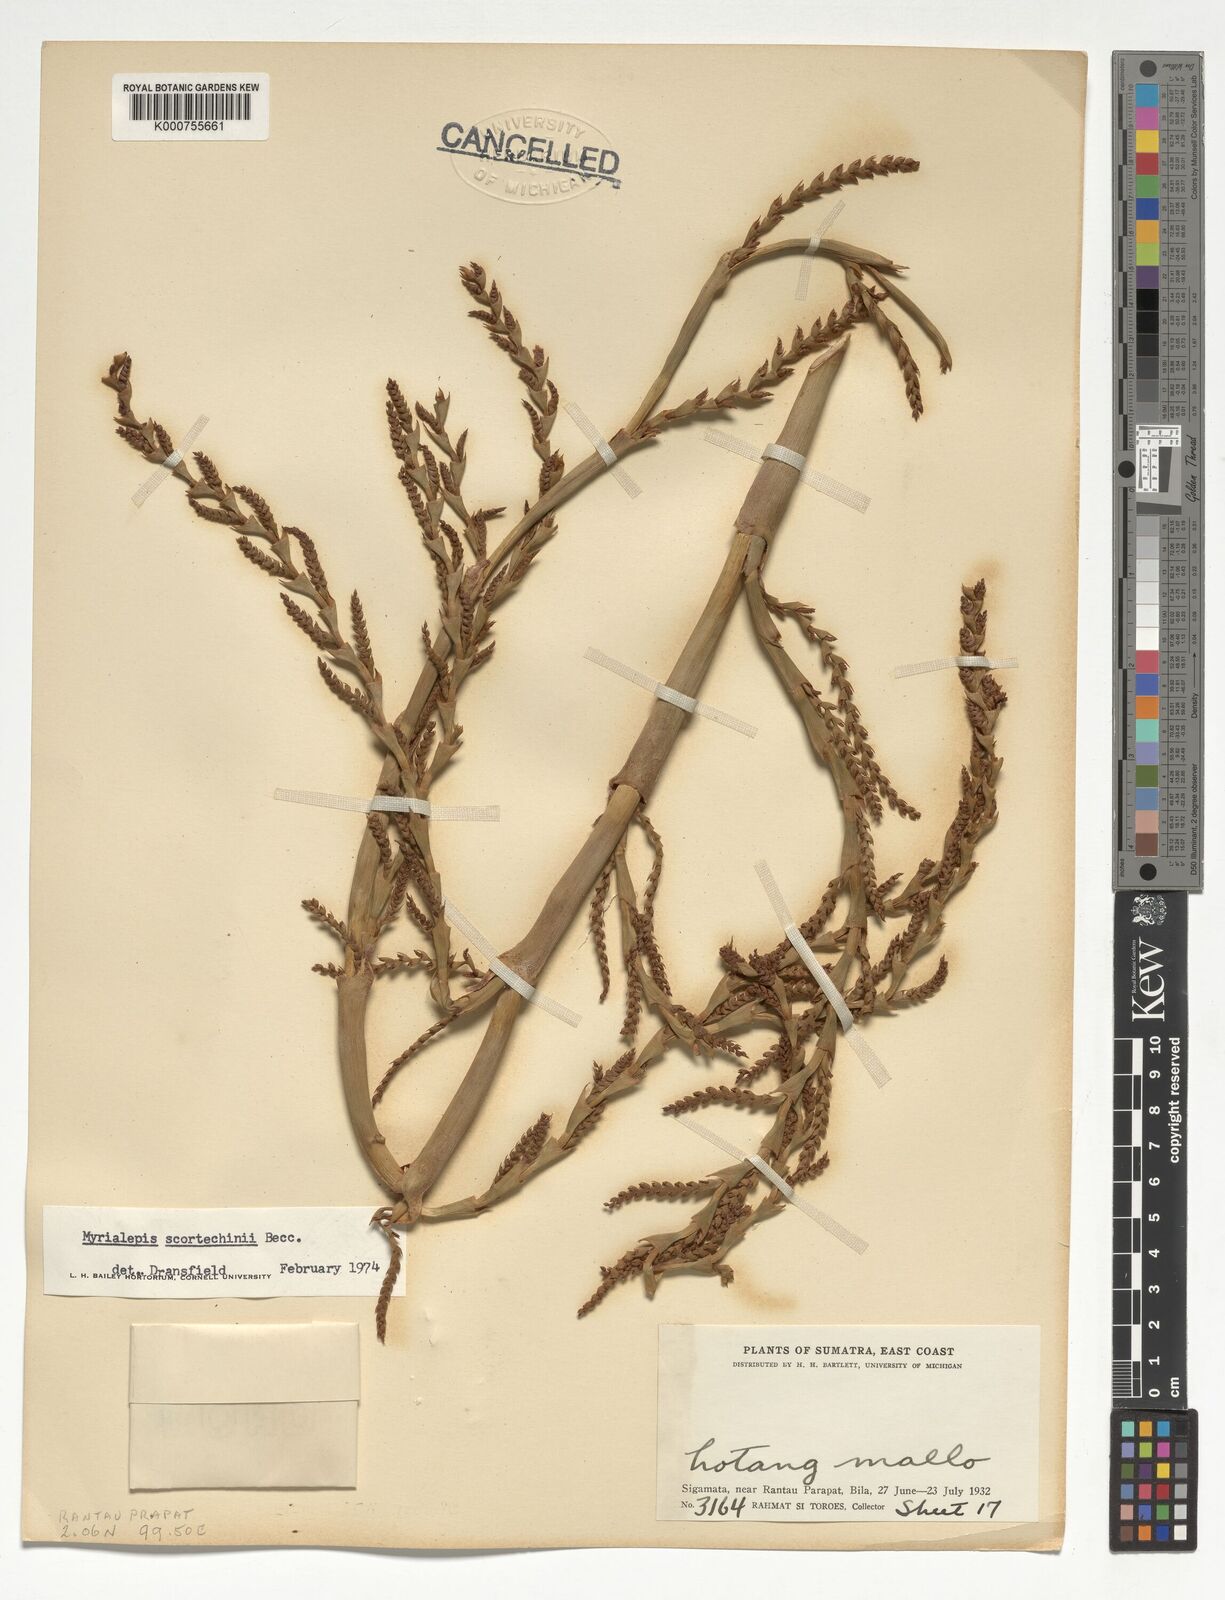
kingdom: Plantae
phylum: Tracheophyta
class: Liliopsida
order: Arecales
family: Arecaceae
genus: Myrialepis
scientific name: Myrialepis paradoxa
